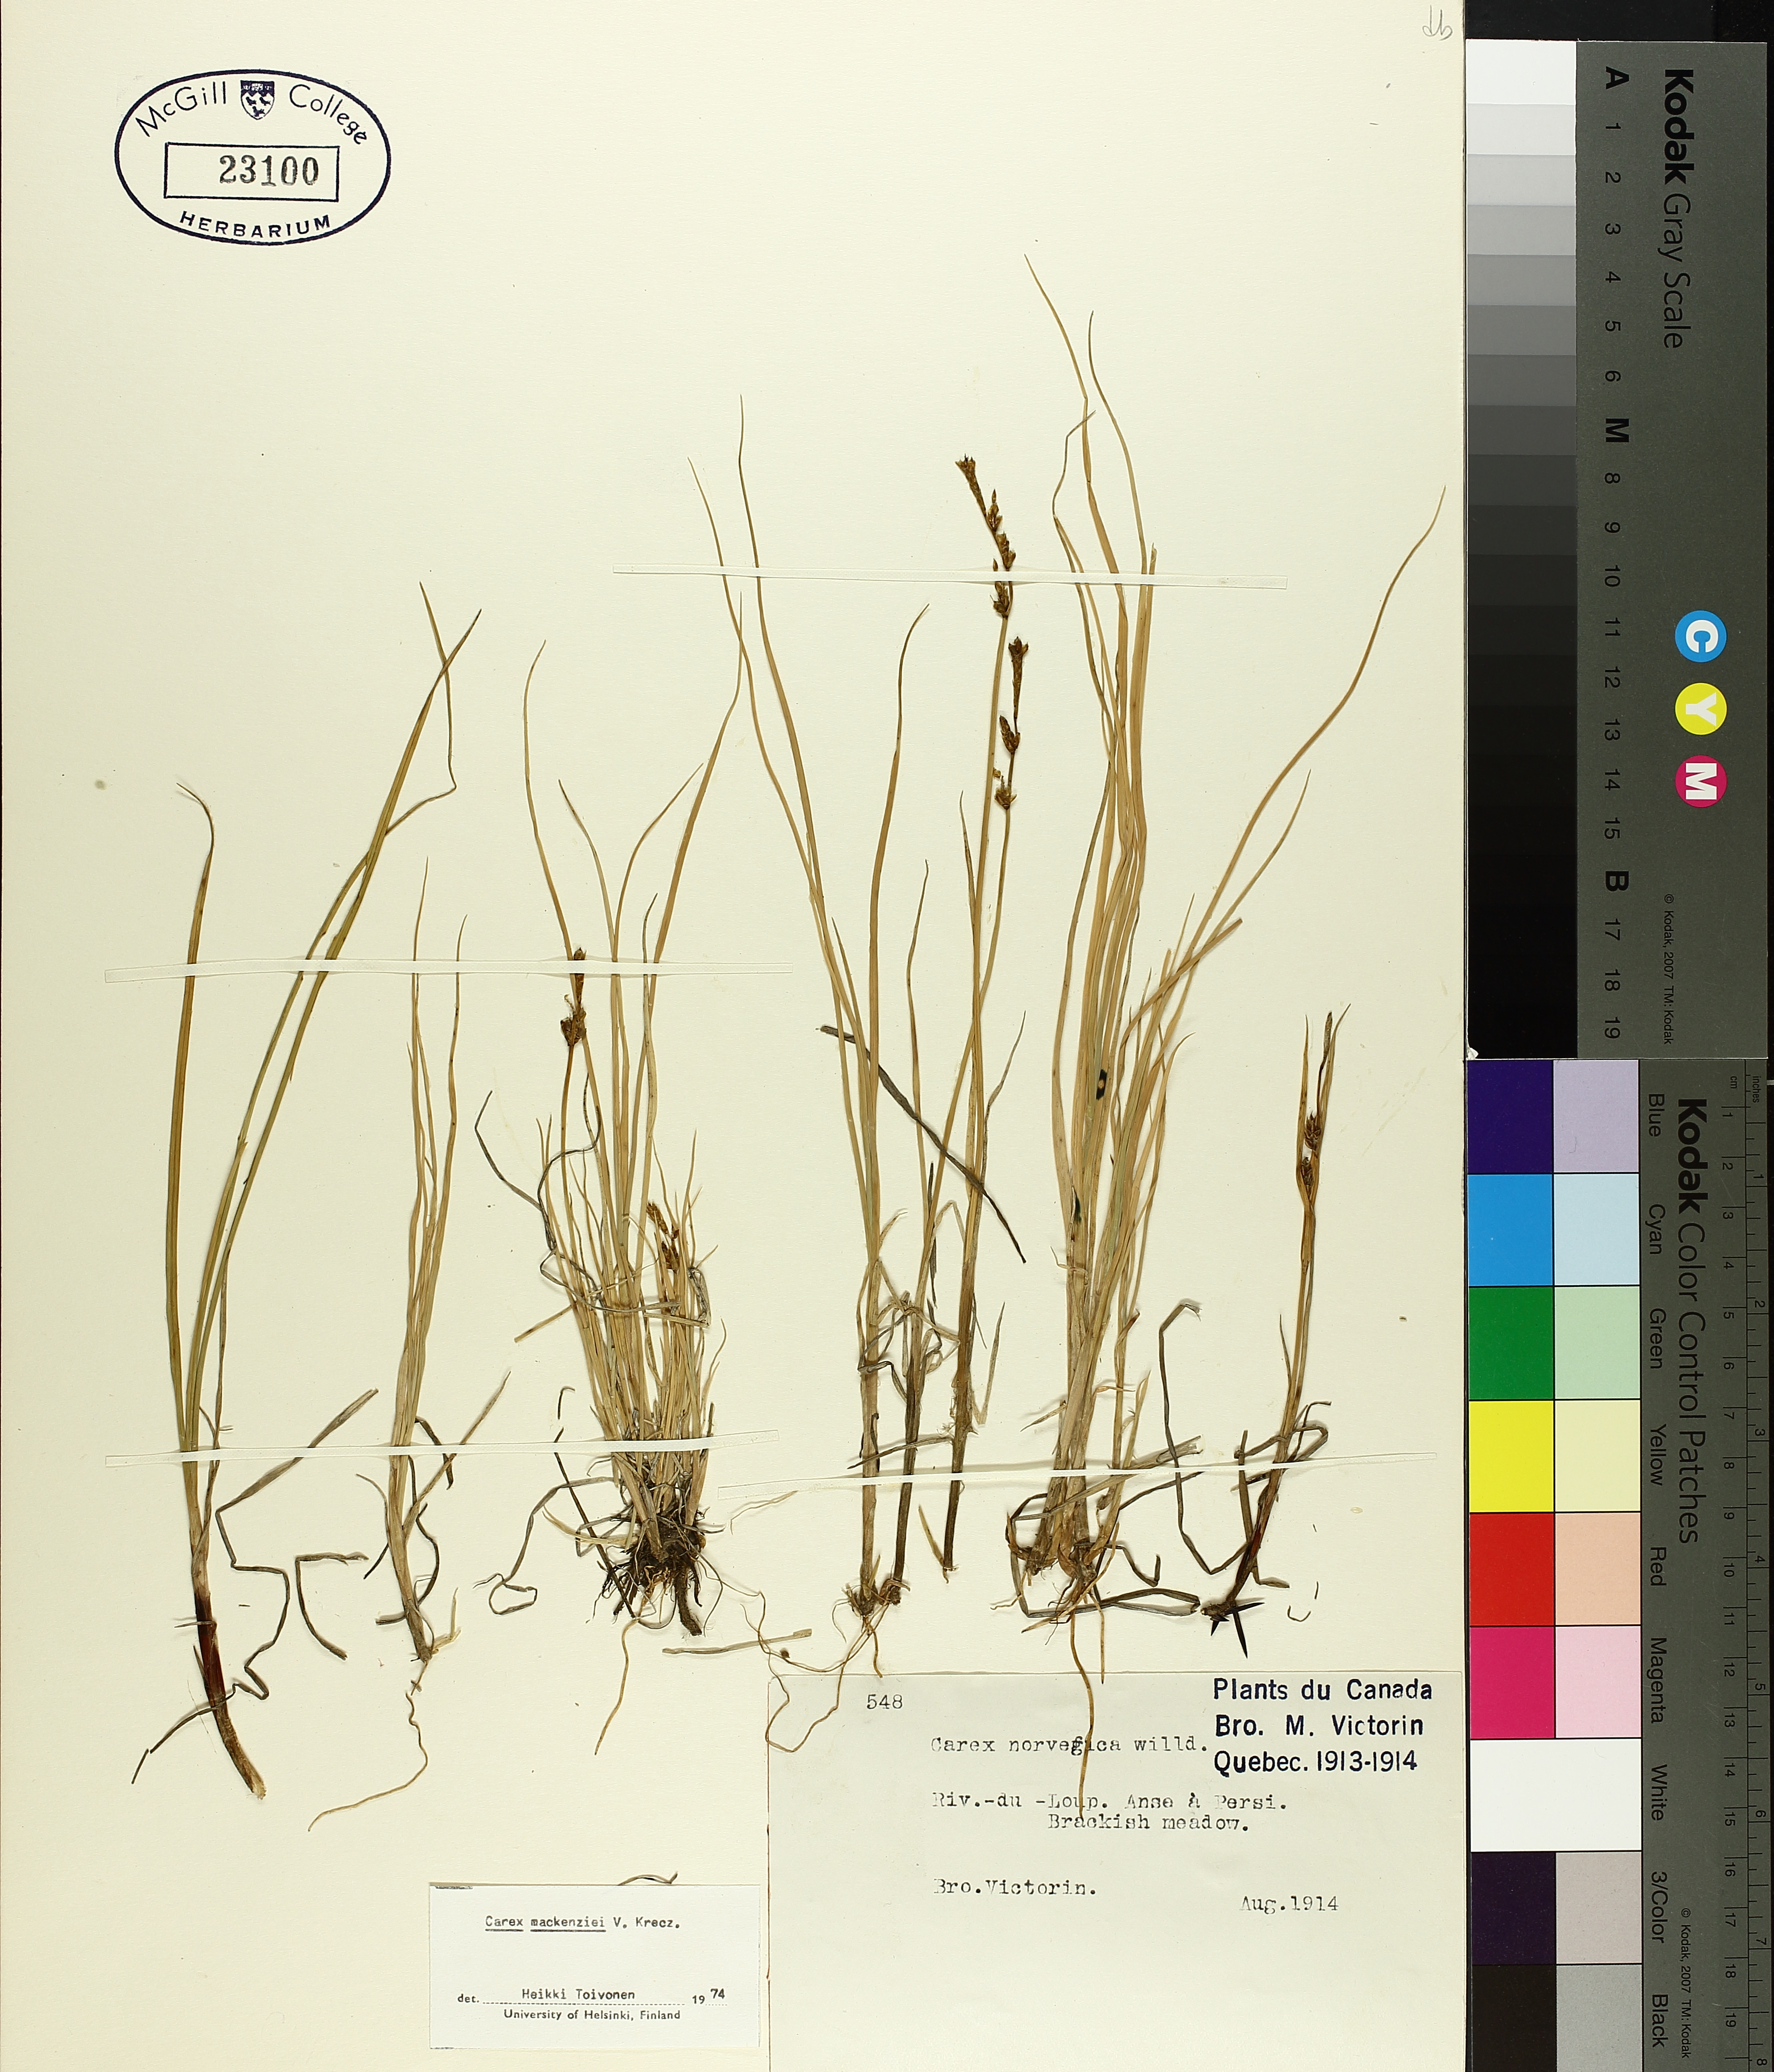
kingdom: Plantae
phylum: Tracheophyta
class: Liliopsida
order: Poales
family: Cyperaceae
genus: Carex
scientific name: Carex mackenziei
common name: Mackenzie's sedge
